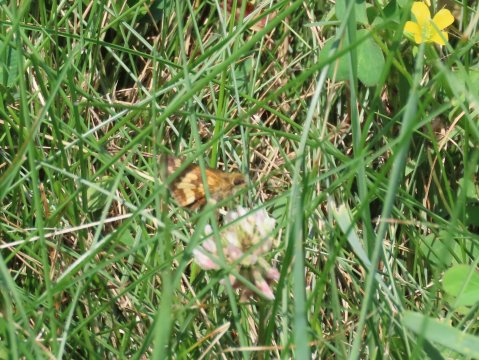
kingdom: Animalia
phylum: Arthropoda
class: Insecta
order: Lepidoptera
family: Hesperiidae
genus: Polites
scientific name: Polites coras
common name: Peck's Skipper
